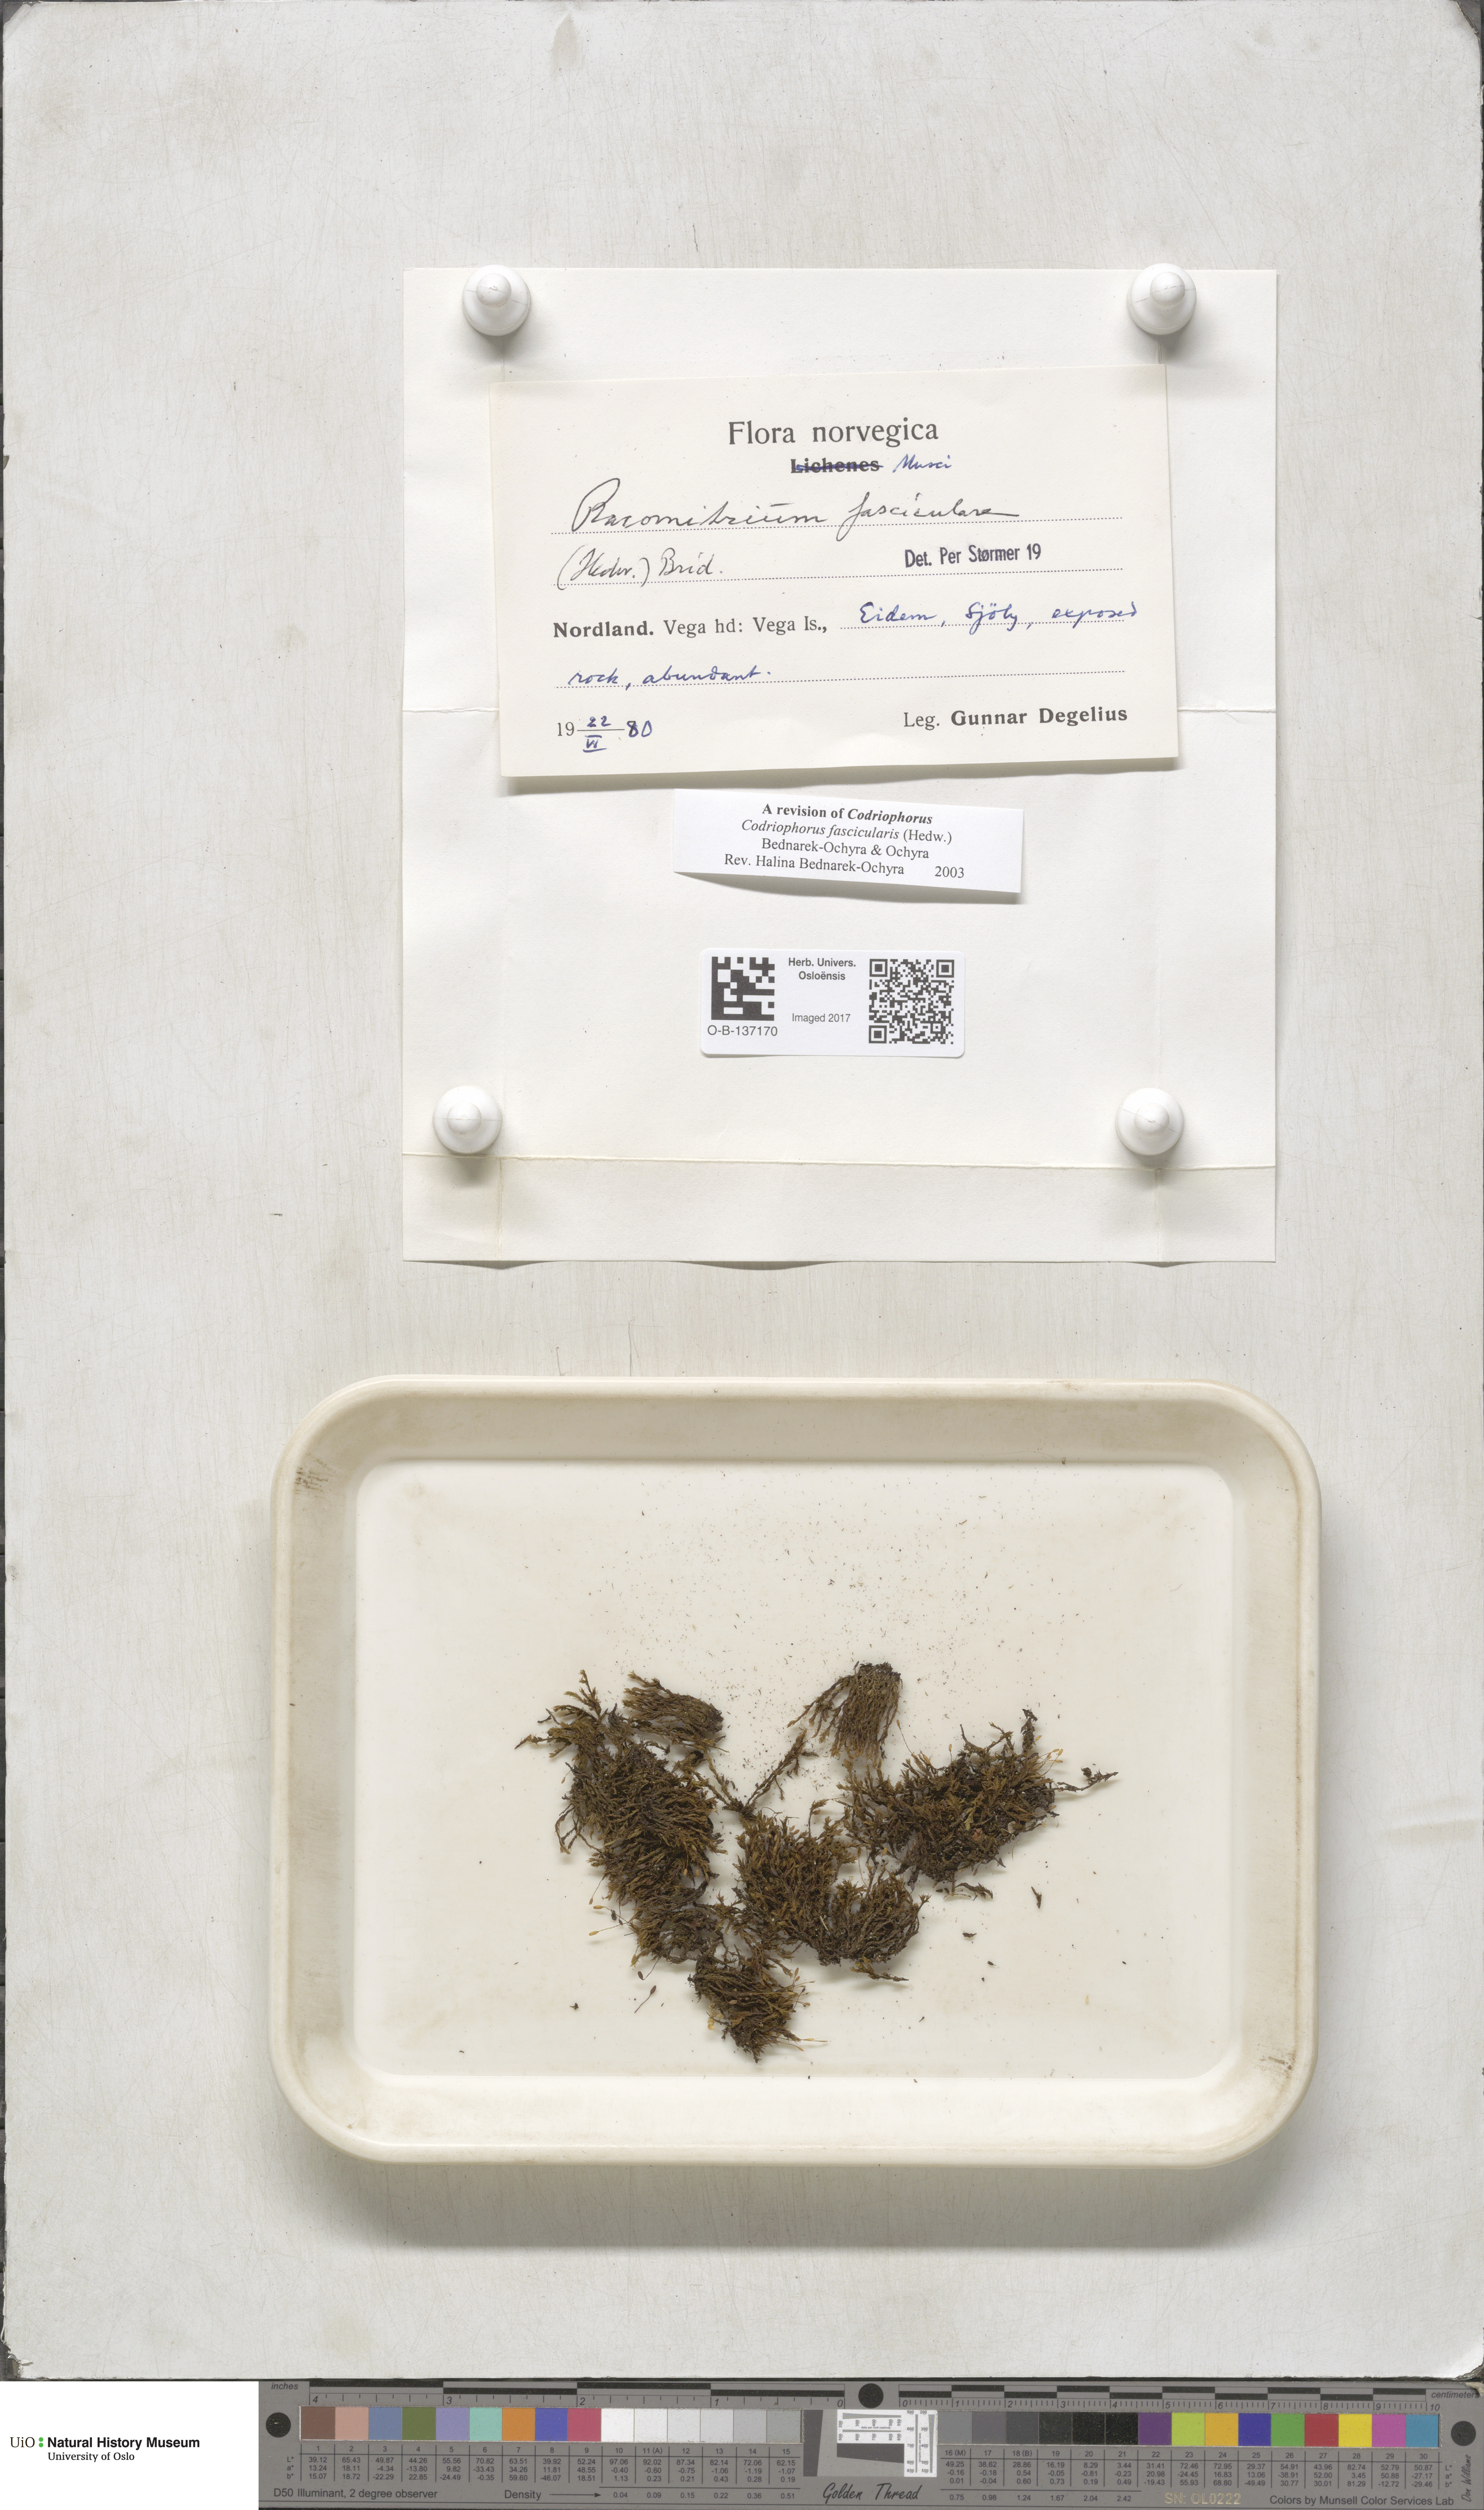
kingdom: Plantae
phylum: Bryophyta
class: Bryopsida
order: Grimmiales
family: Grimmiaceae
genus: Dilutineuron
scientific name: Dilutineuron fasciculare
